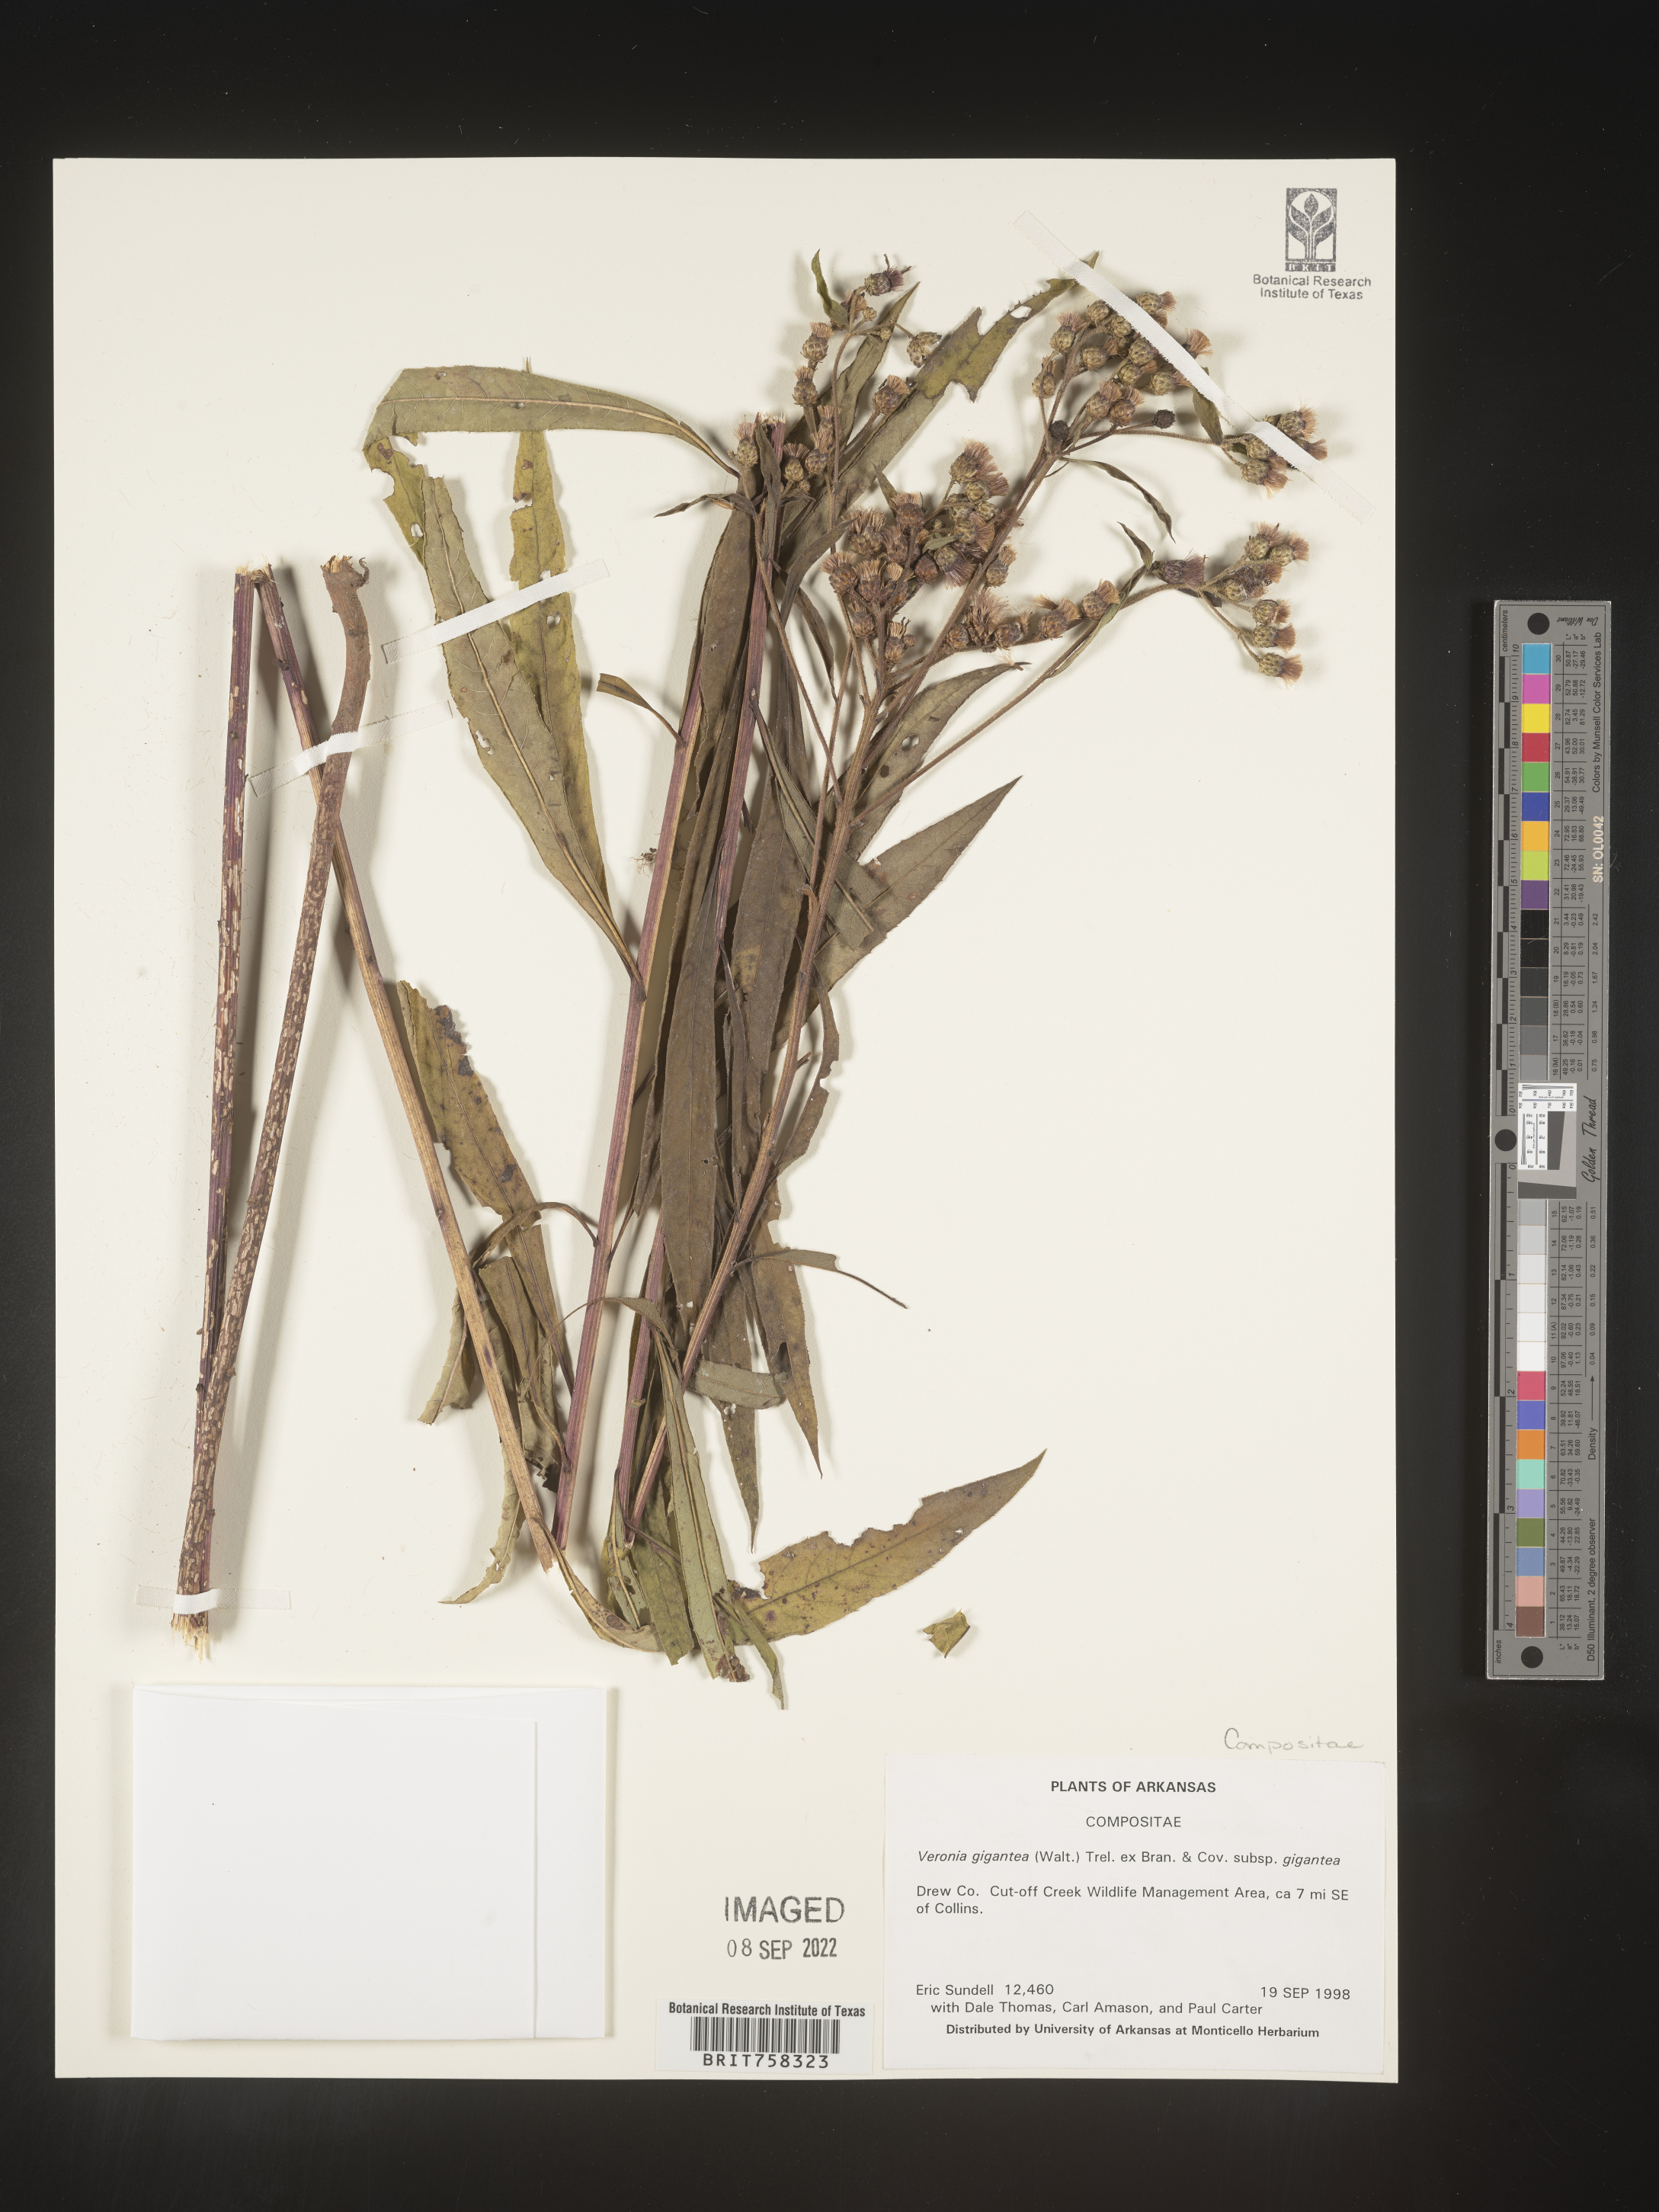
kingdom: Plantae
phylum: Tracheophyta
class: Magnoliopsida
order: Asterales
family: Asteraceae
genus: Vernonia
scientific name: Vernonia gigantea
